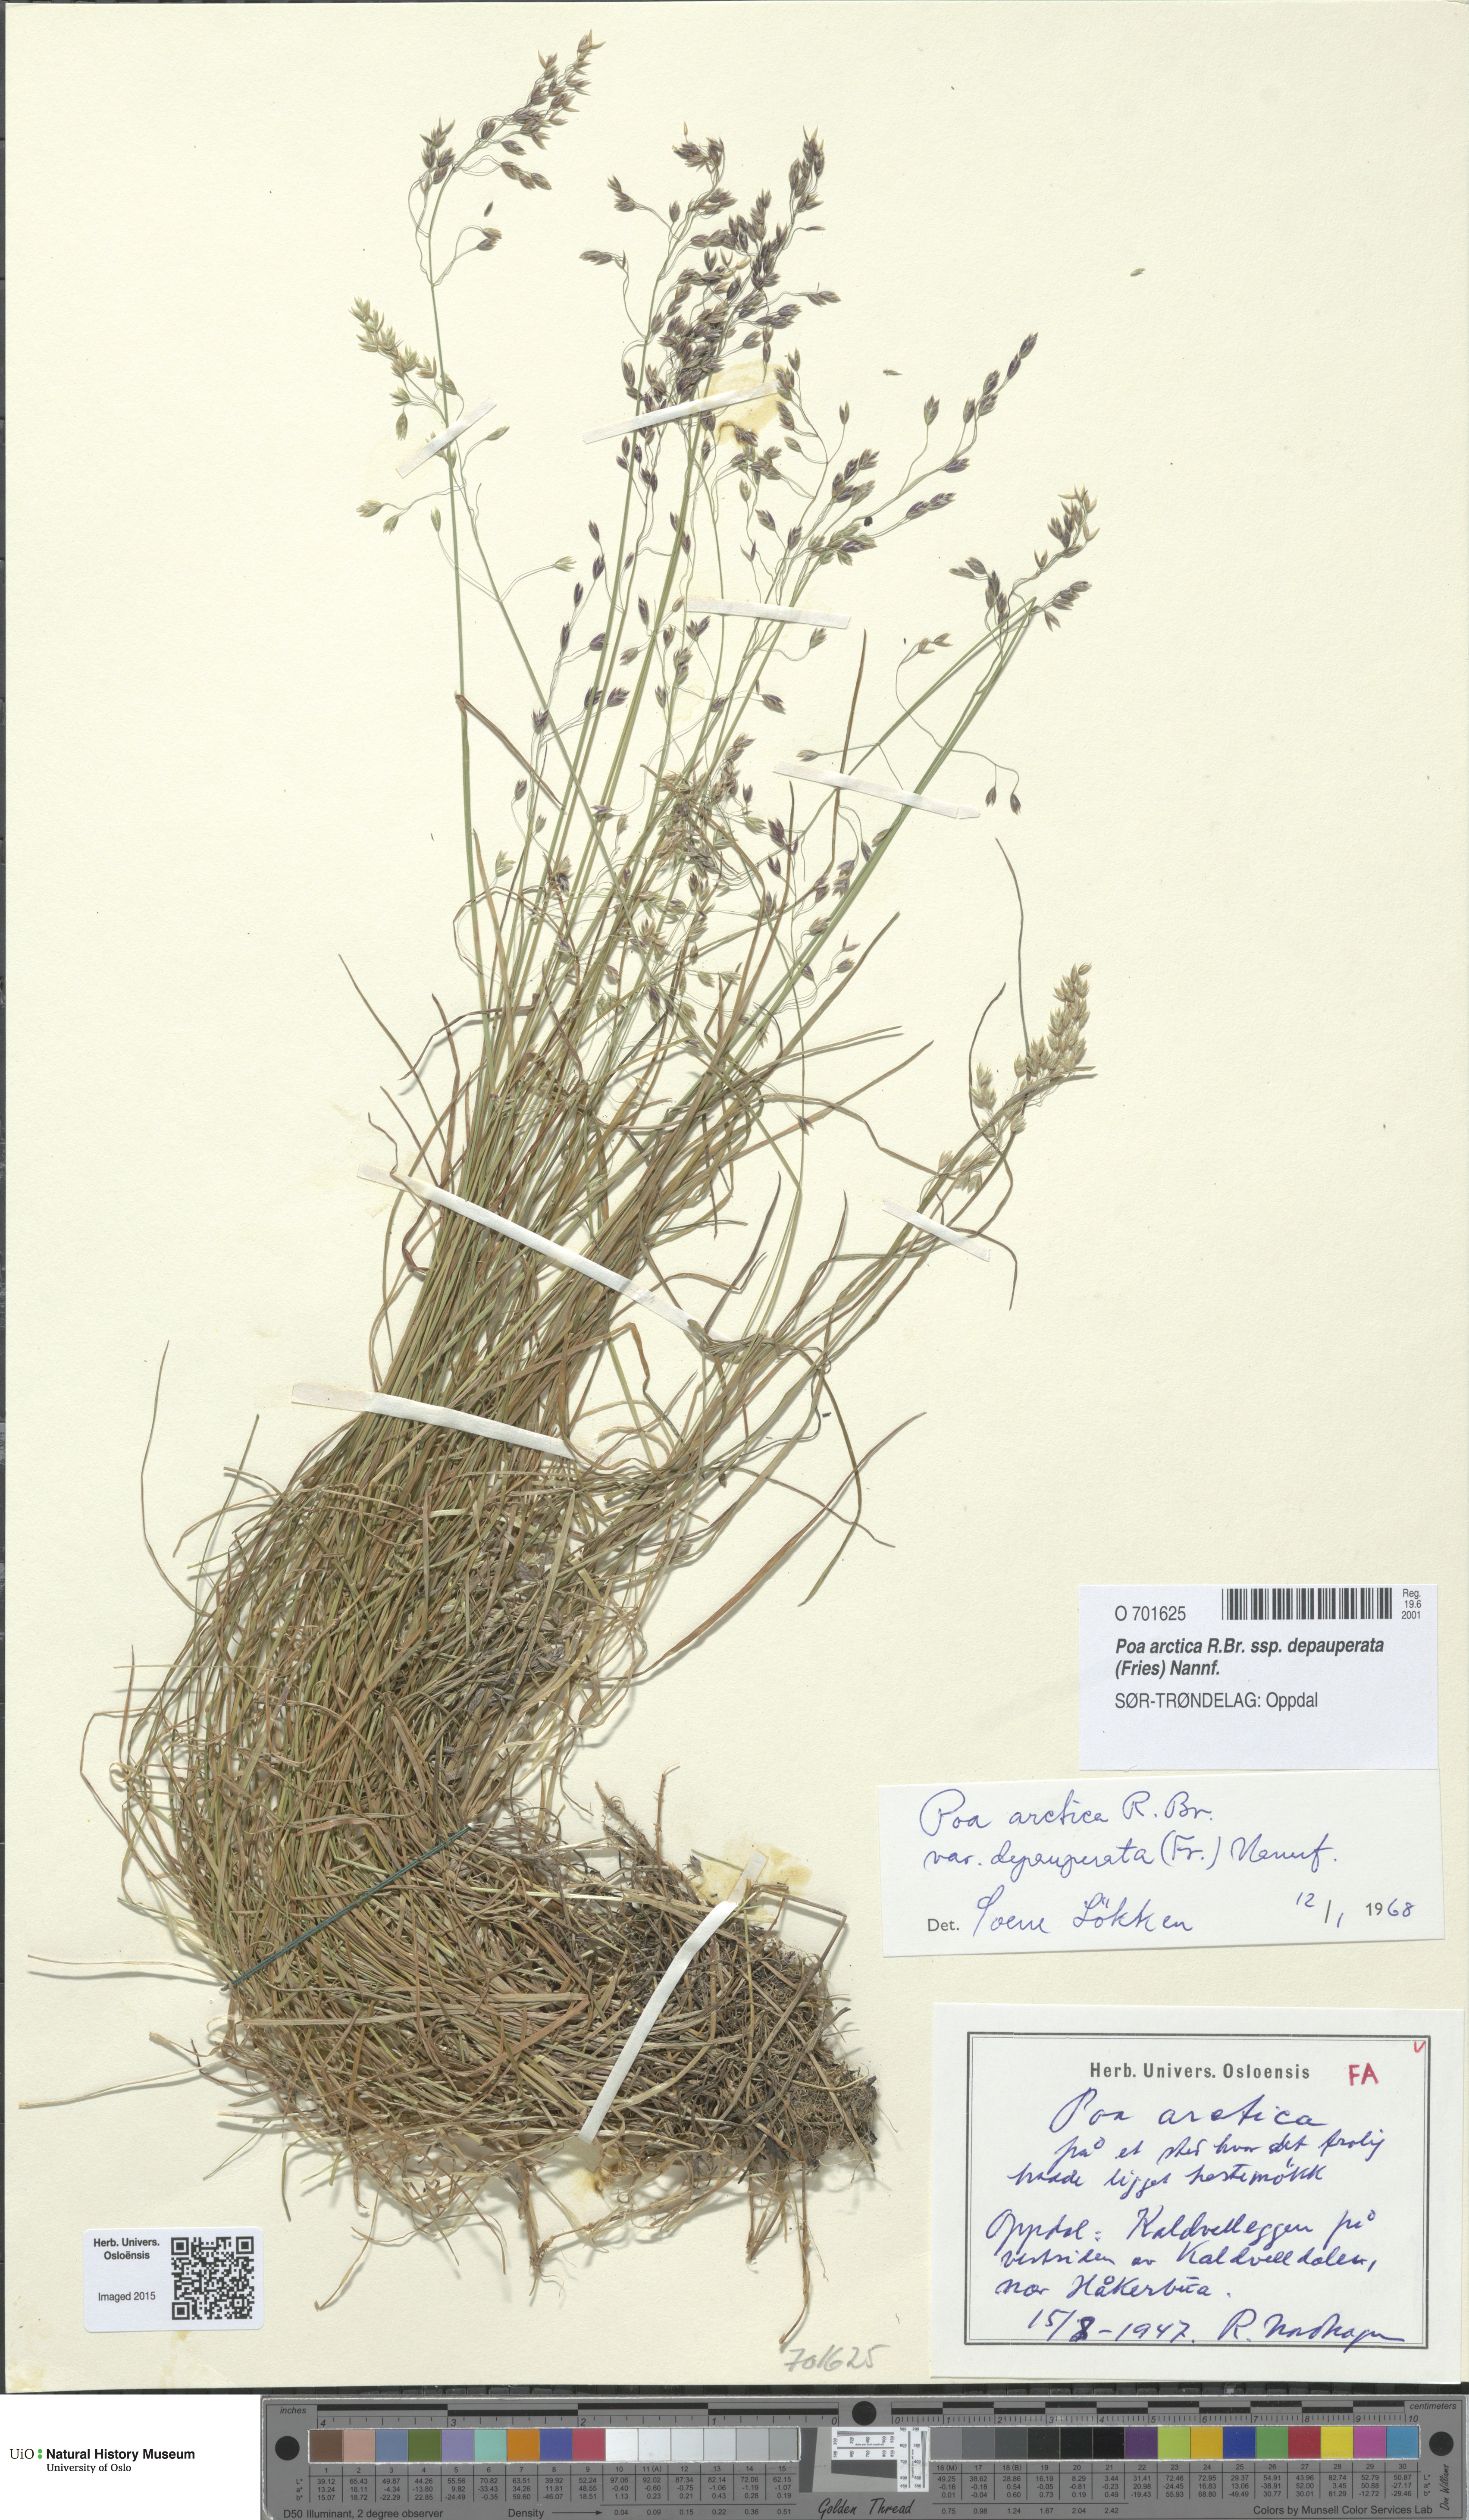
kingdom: Plantae
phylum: Tracheophyta
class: Liliopsida
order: Poales
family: Poaceae
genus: Poa
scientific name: Poa arctica
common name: Arctic bluegrass
